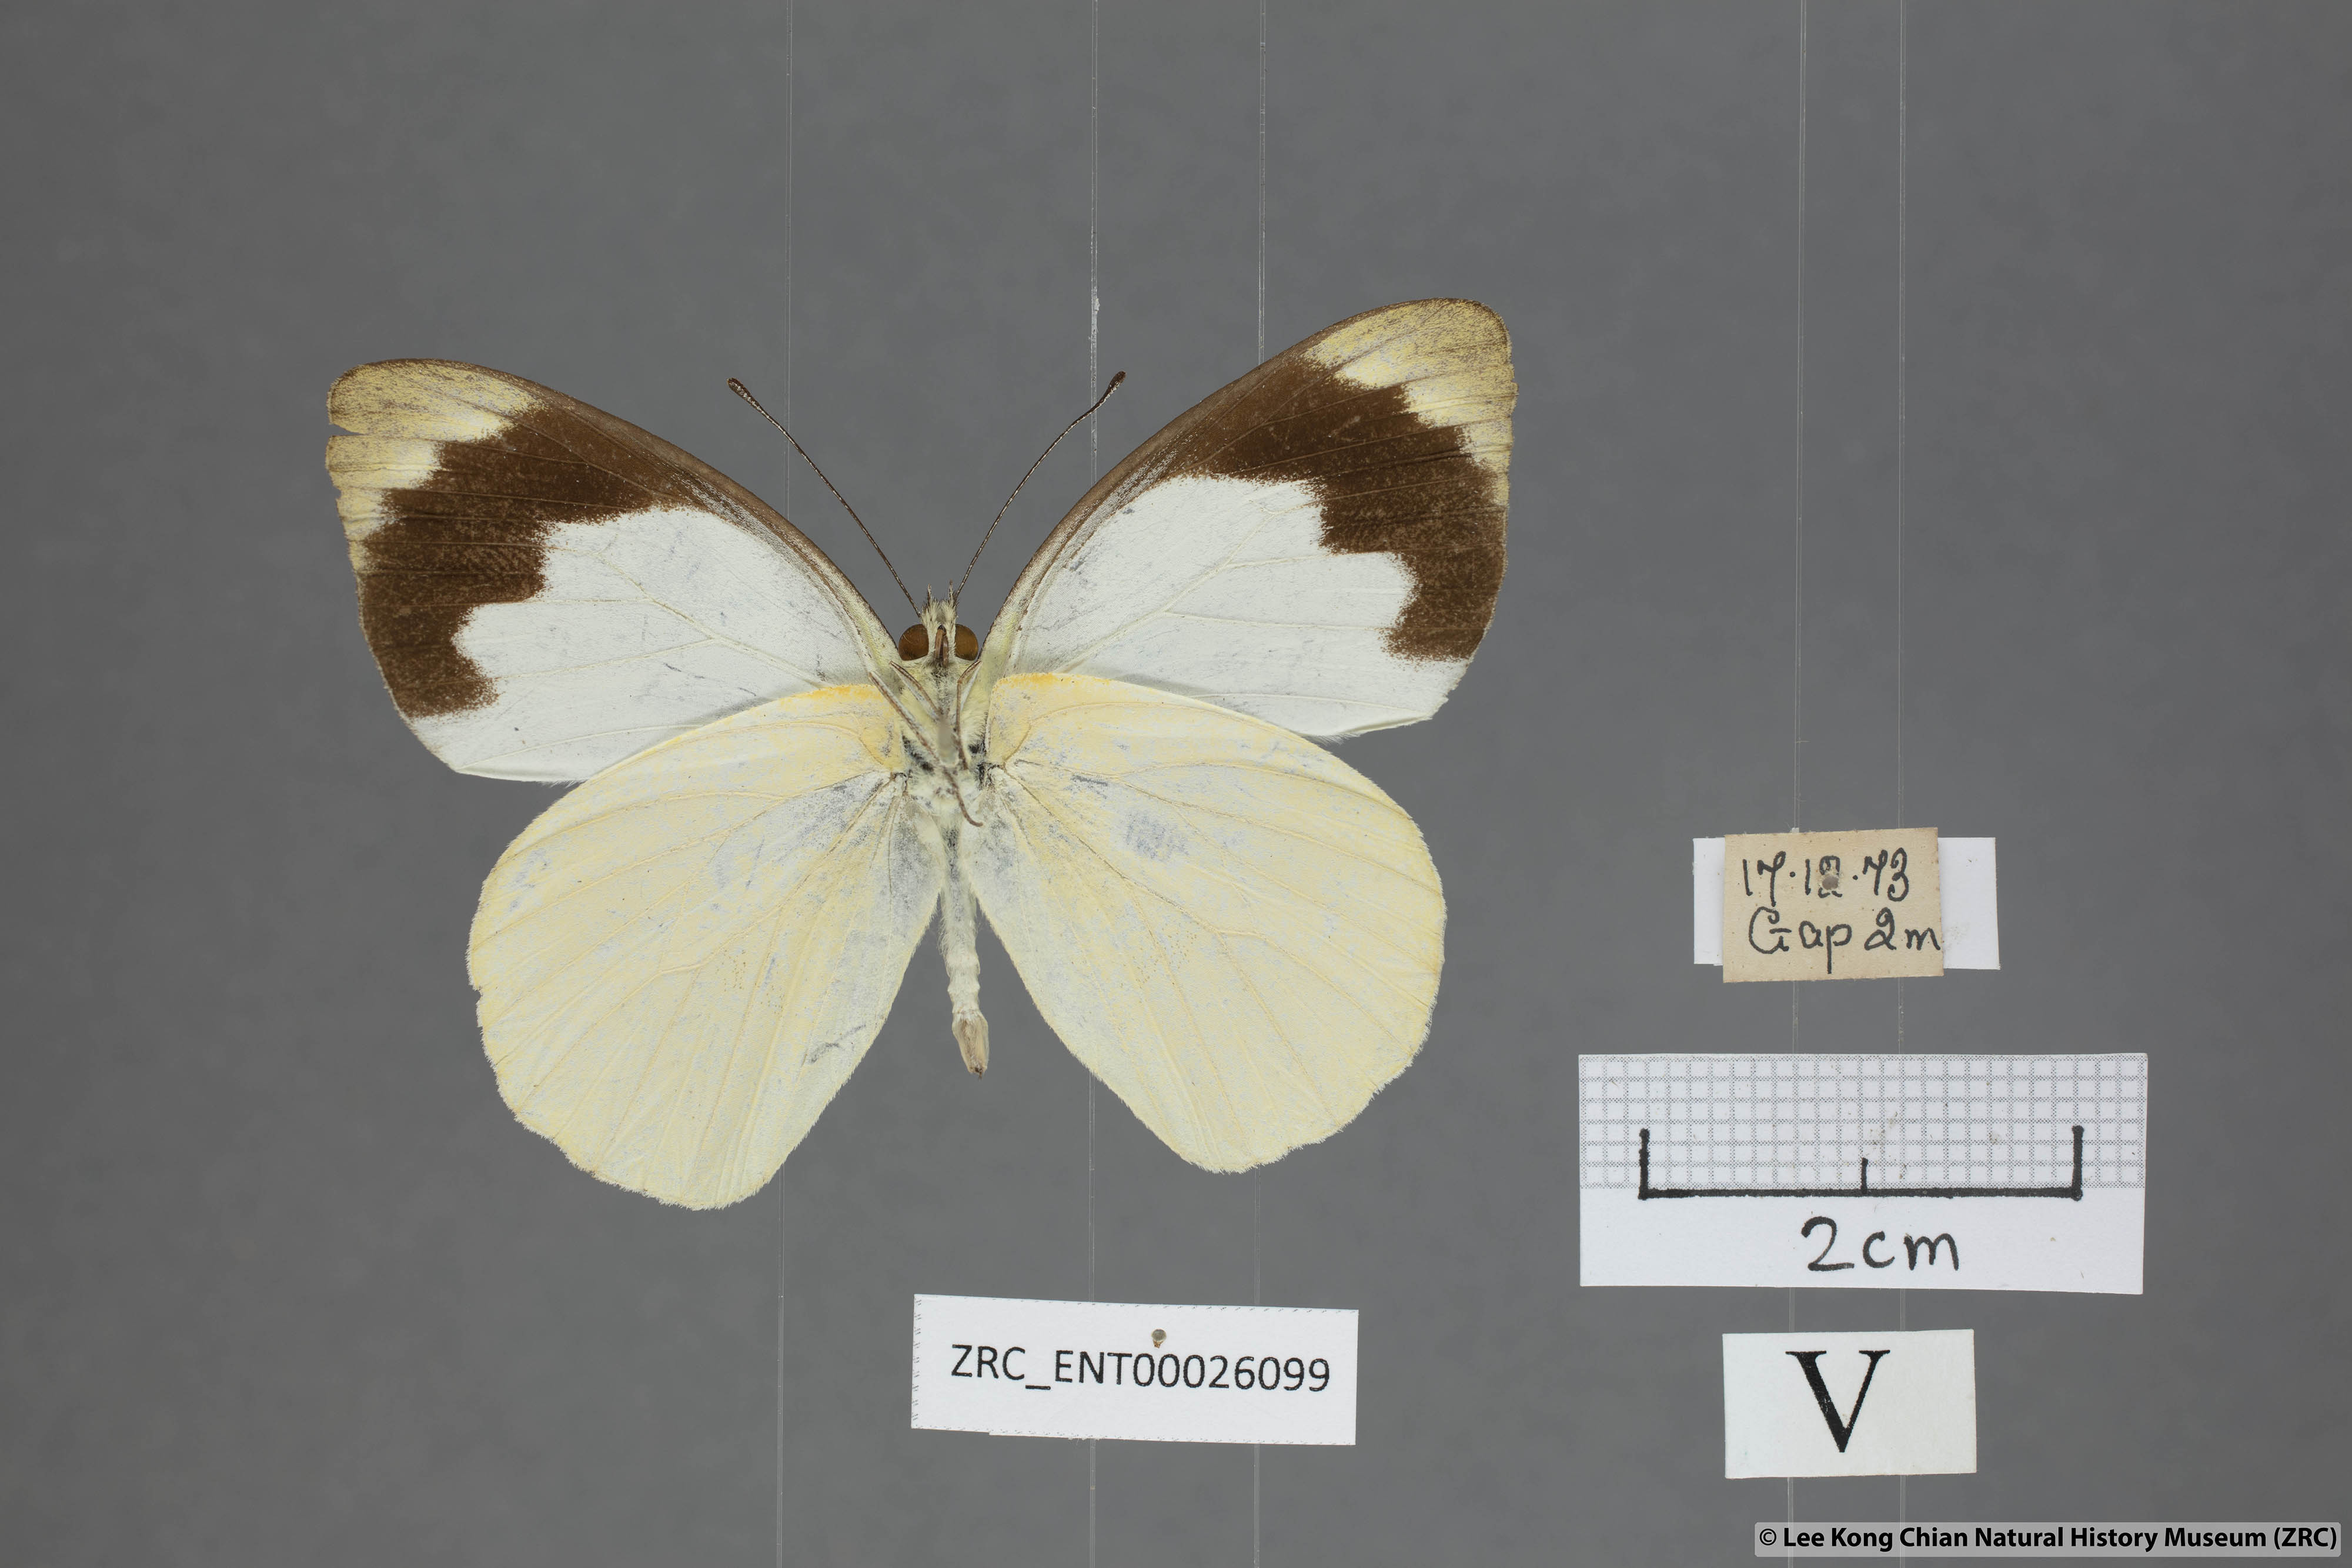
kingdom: Animalia
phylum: Arthropoda
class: Insecta
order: Lepidoptera
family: Pieridae
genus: Appias
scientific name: Appias indra
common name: Plain puffin
